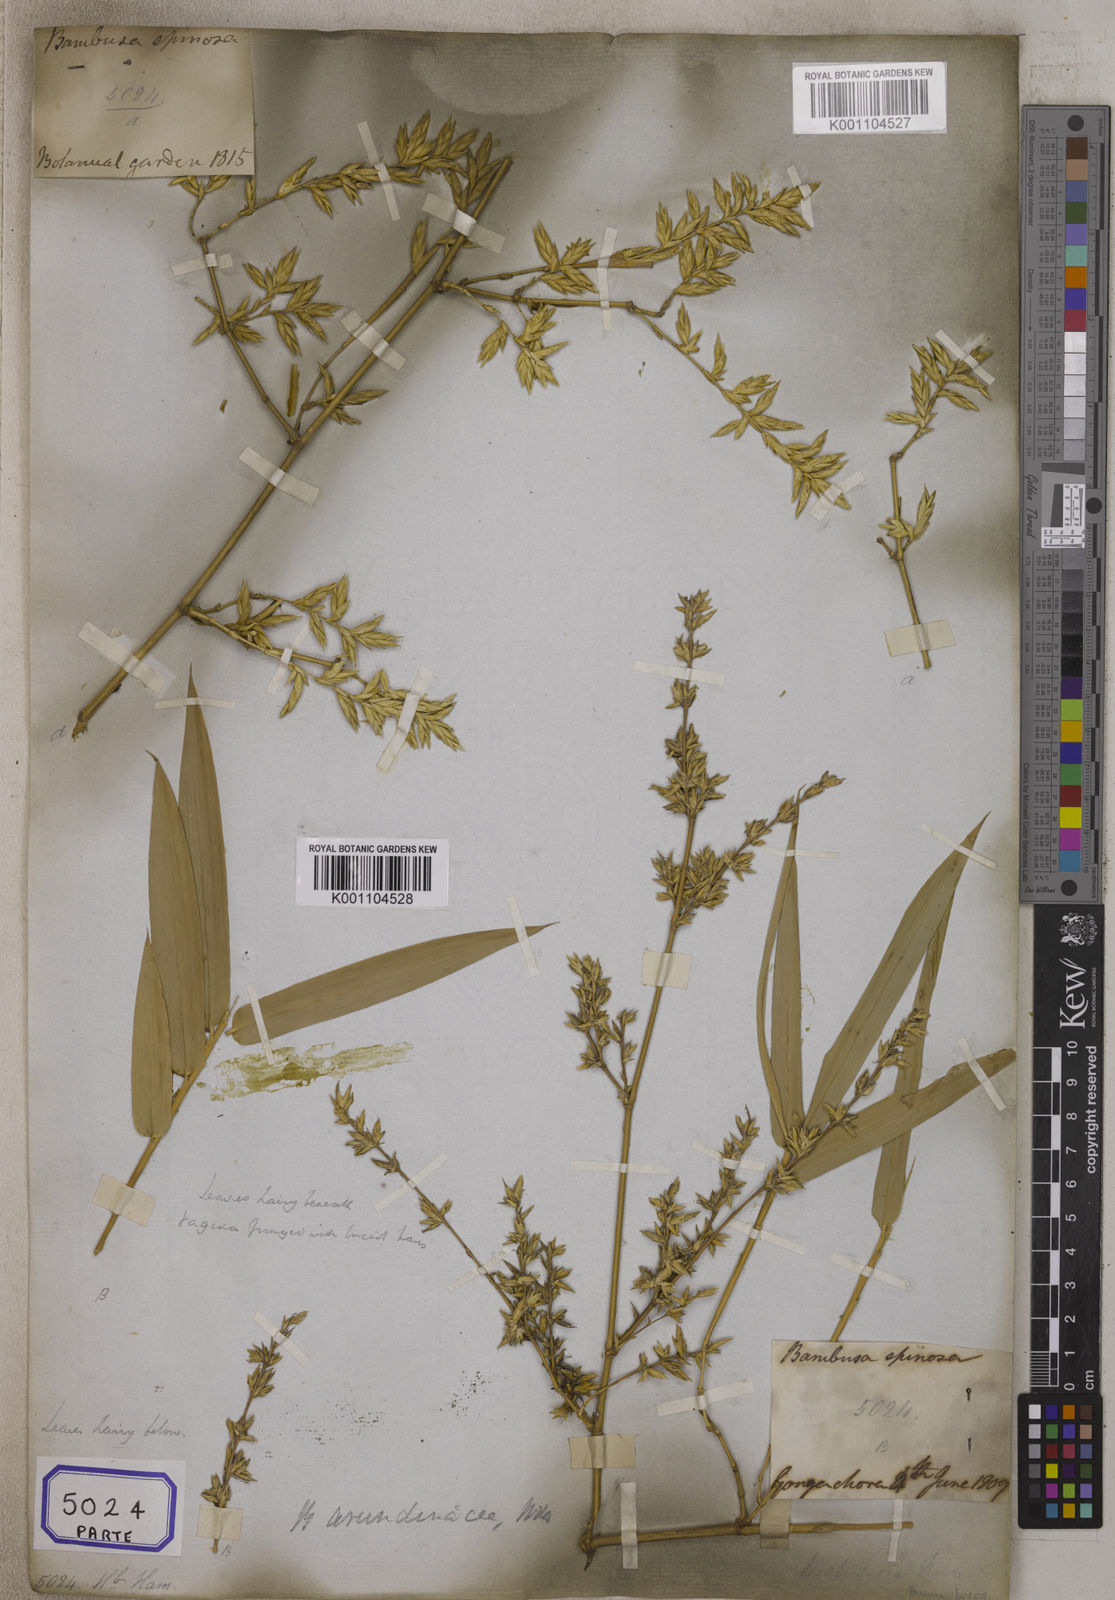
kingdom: Plantae
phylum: Tracheophyta
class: Liliopsida
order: Poales
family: Poaceae
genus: Bambusa
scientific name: Bambusa
